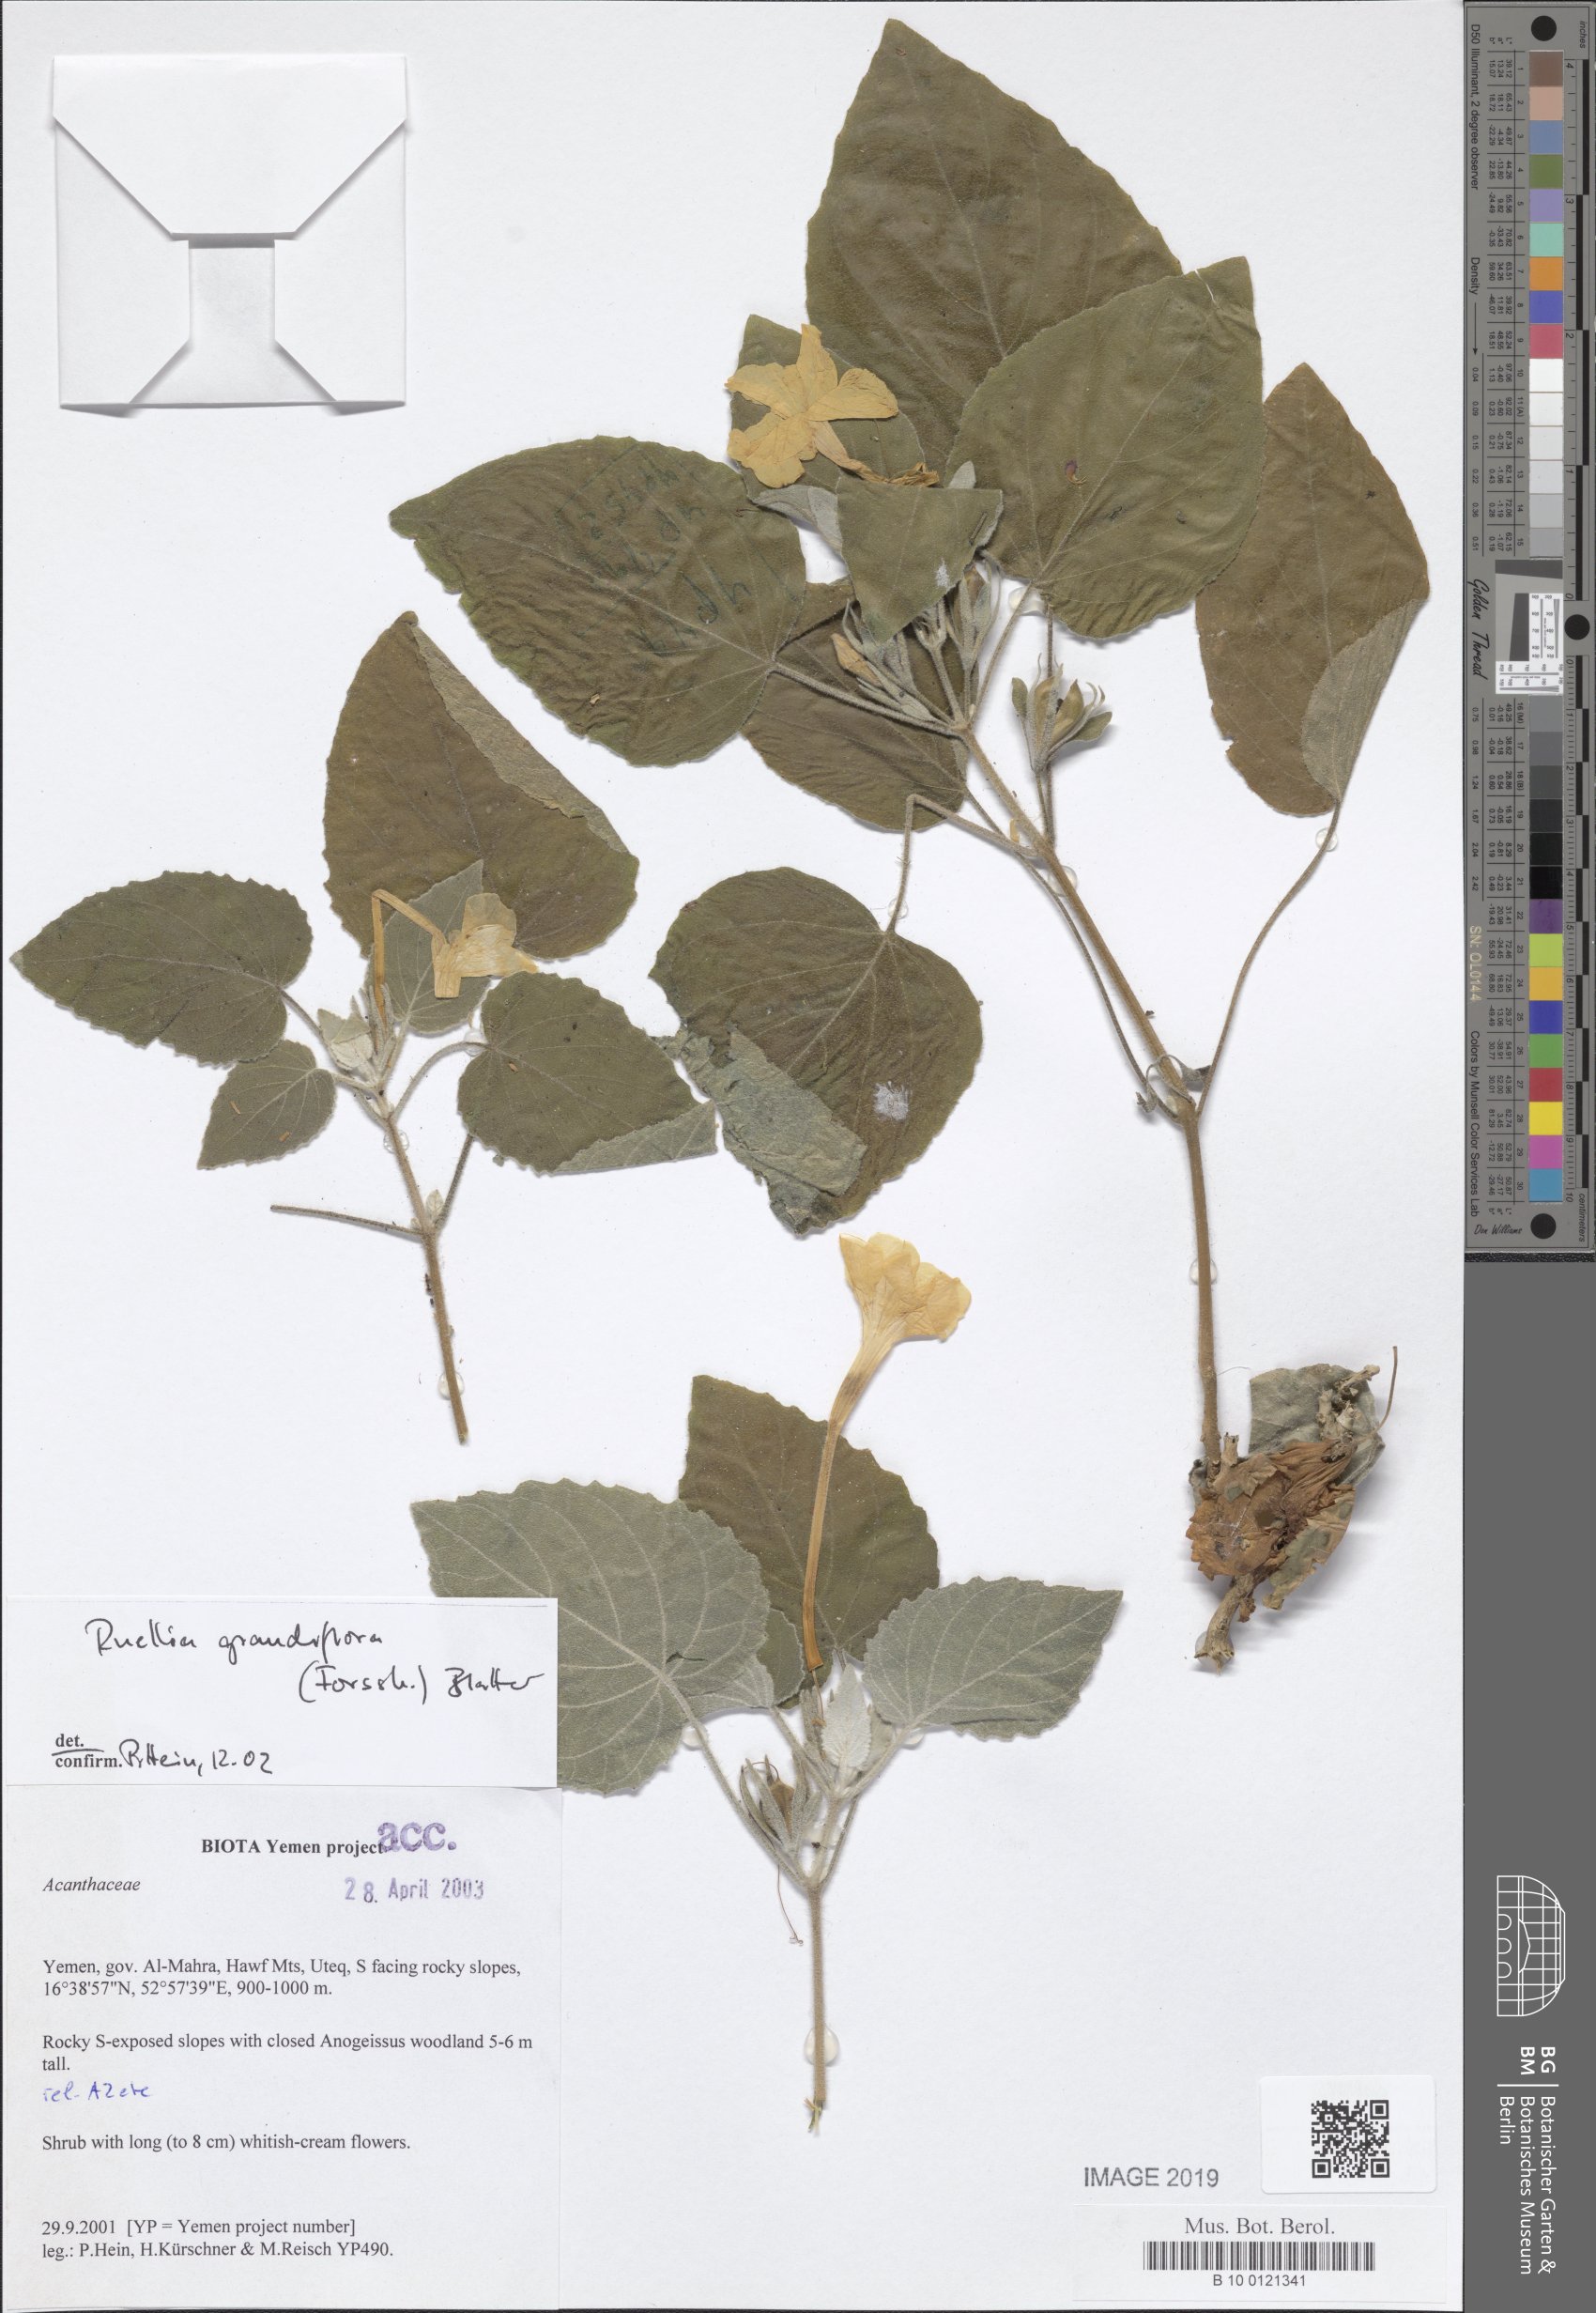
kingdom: Plantae
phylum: Tracheophyta
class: Magnoliopsida
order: Lamiales
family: Acanthaceae
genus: Ruellia
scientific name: Ruellia grandiflora
